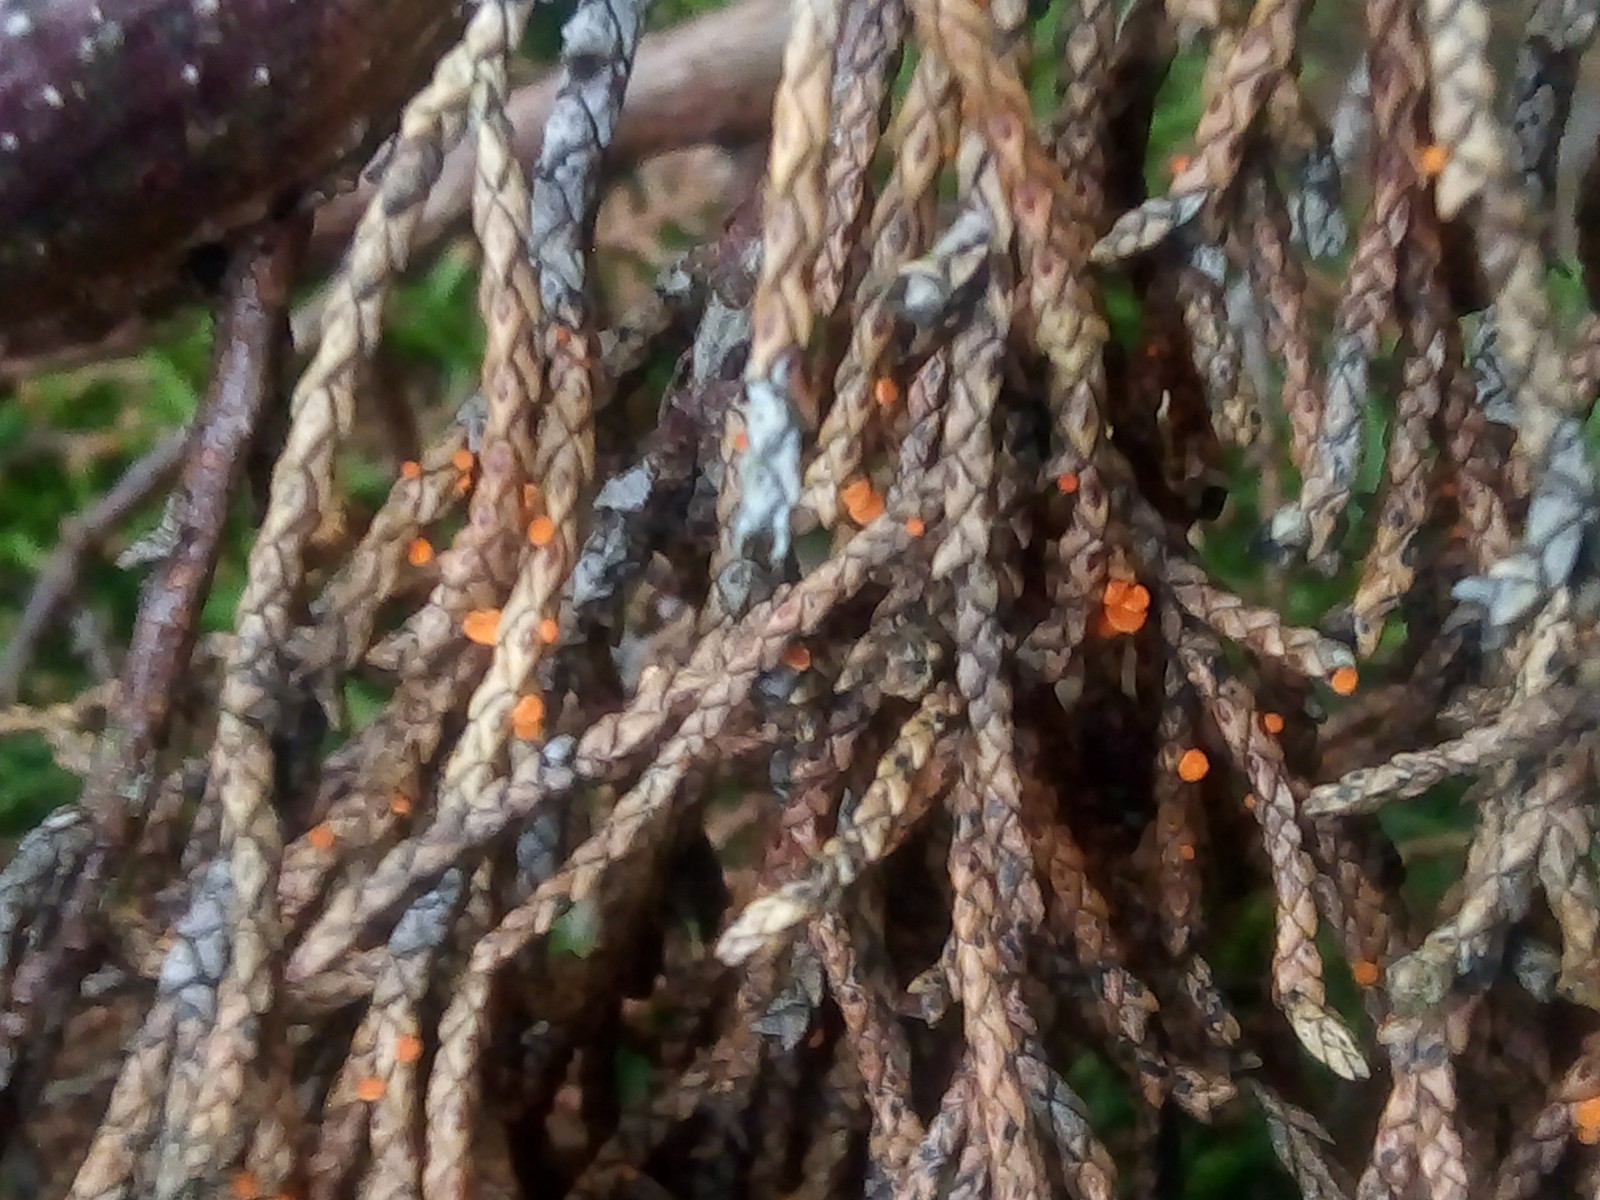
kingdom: Fungi
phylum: Ascomycota
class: Pezizomycetes
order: Pezizales
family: Sarcoscyphaceae
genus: Pithya
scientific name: Pithya cupressina
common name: lille dukatbæger
